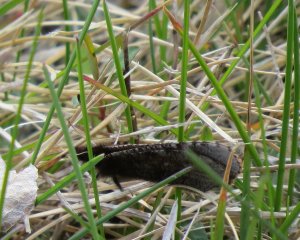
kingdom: Animalia
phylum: Arthropoda
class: Insecta
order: Lepidoptera
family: Nymphalidae
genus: Erebia
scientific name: Erebia discoidalis
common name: Red-disked Alpine
